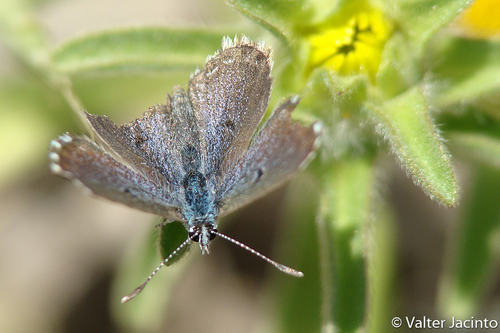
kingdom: Animalia
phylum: Arthropoda
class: Insecta
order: Lepidoptera
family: Lycaenidae
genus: Pseudophilotes
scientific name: Pseudophilotes abencerragus
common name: False baton blue
